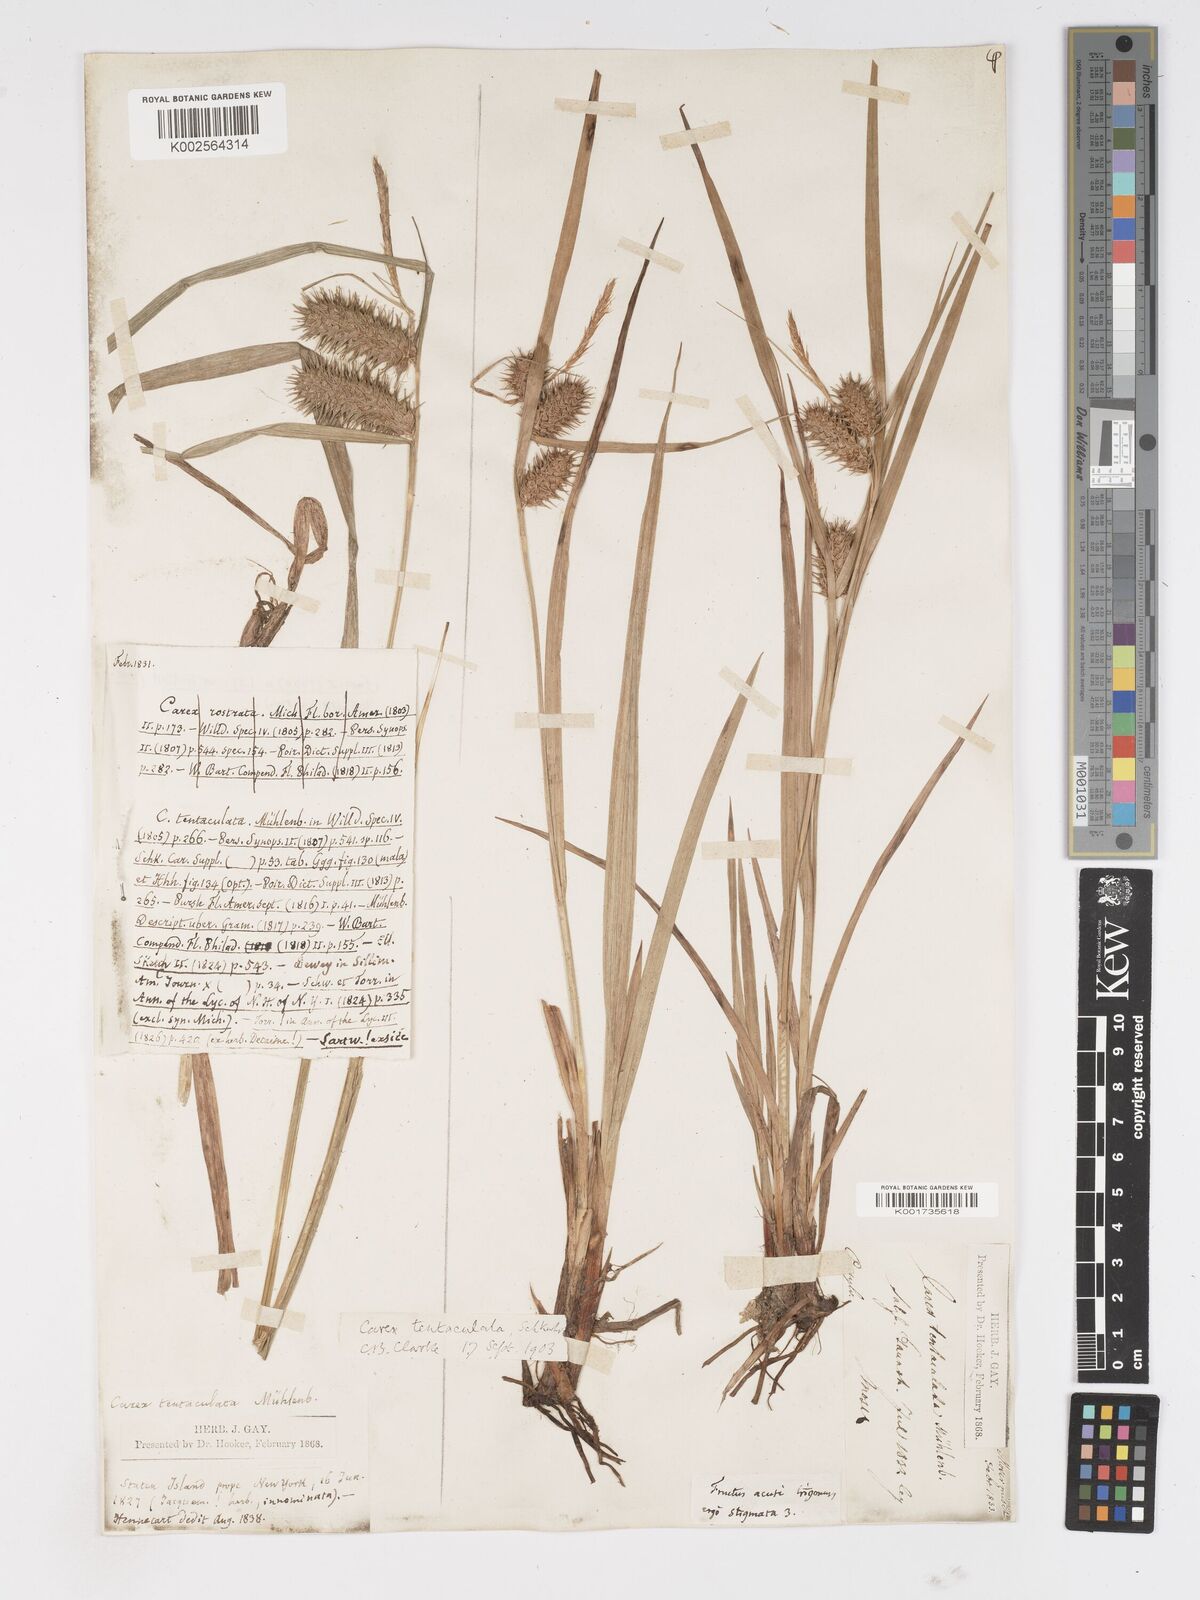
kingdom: Plantae
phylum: Tracheophyta
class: Liliopsida
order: Poales
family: Cyperaceae
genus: Carex
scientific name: Carex lurida
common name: Sallow sedge
